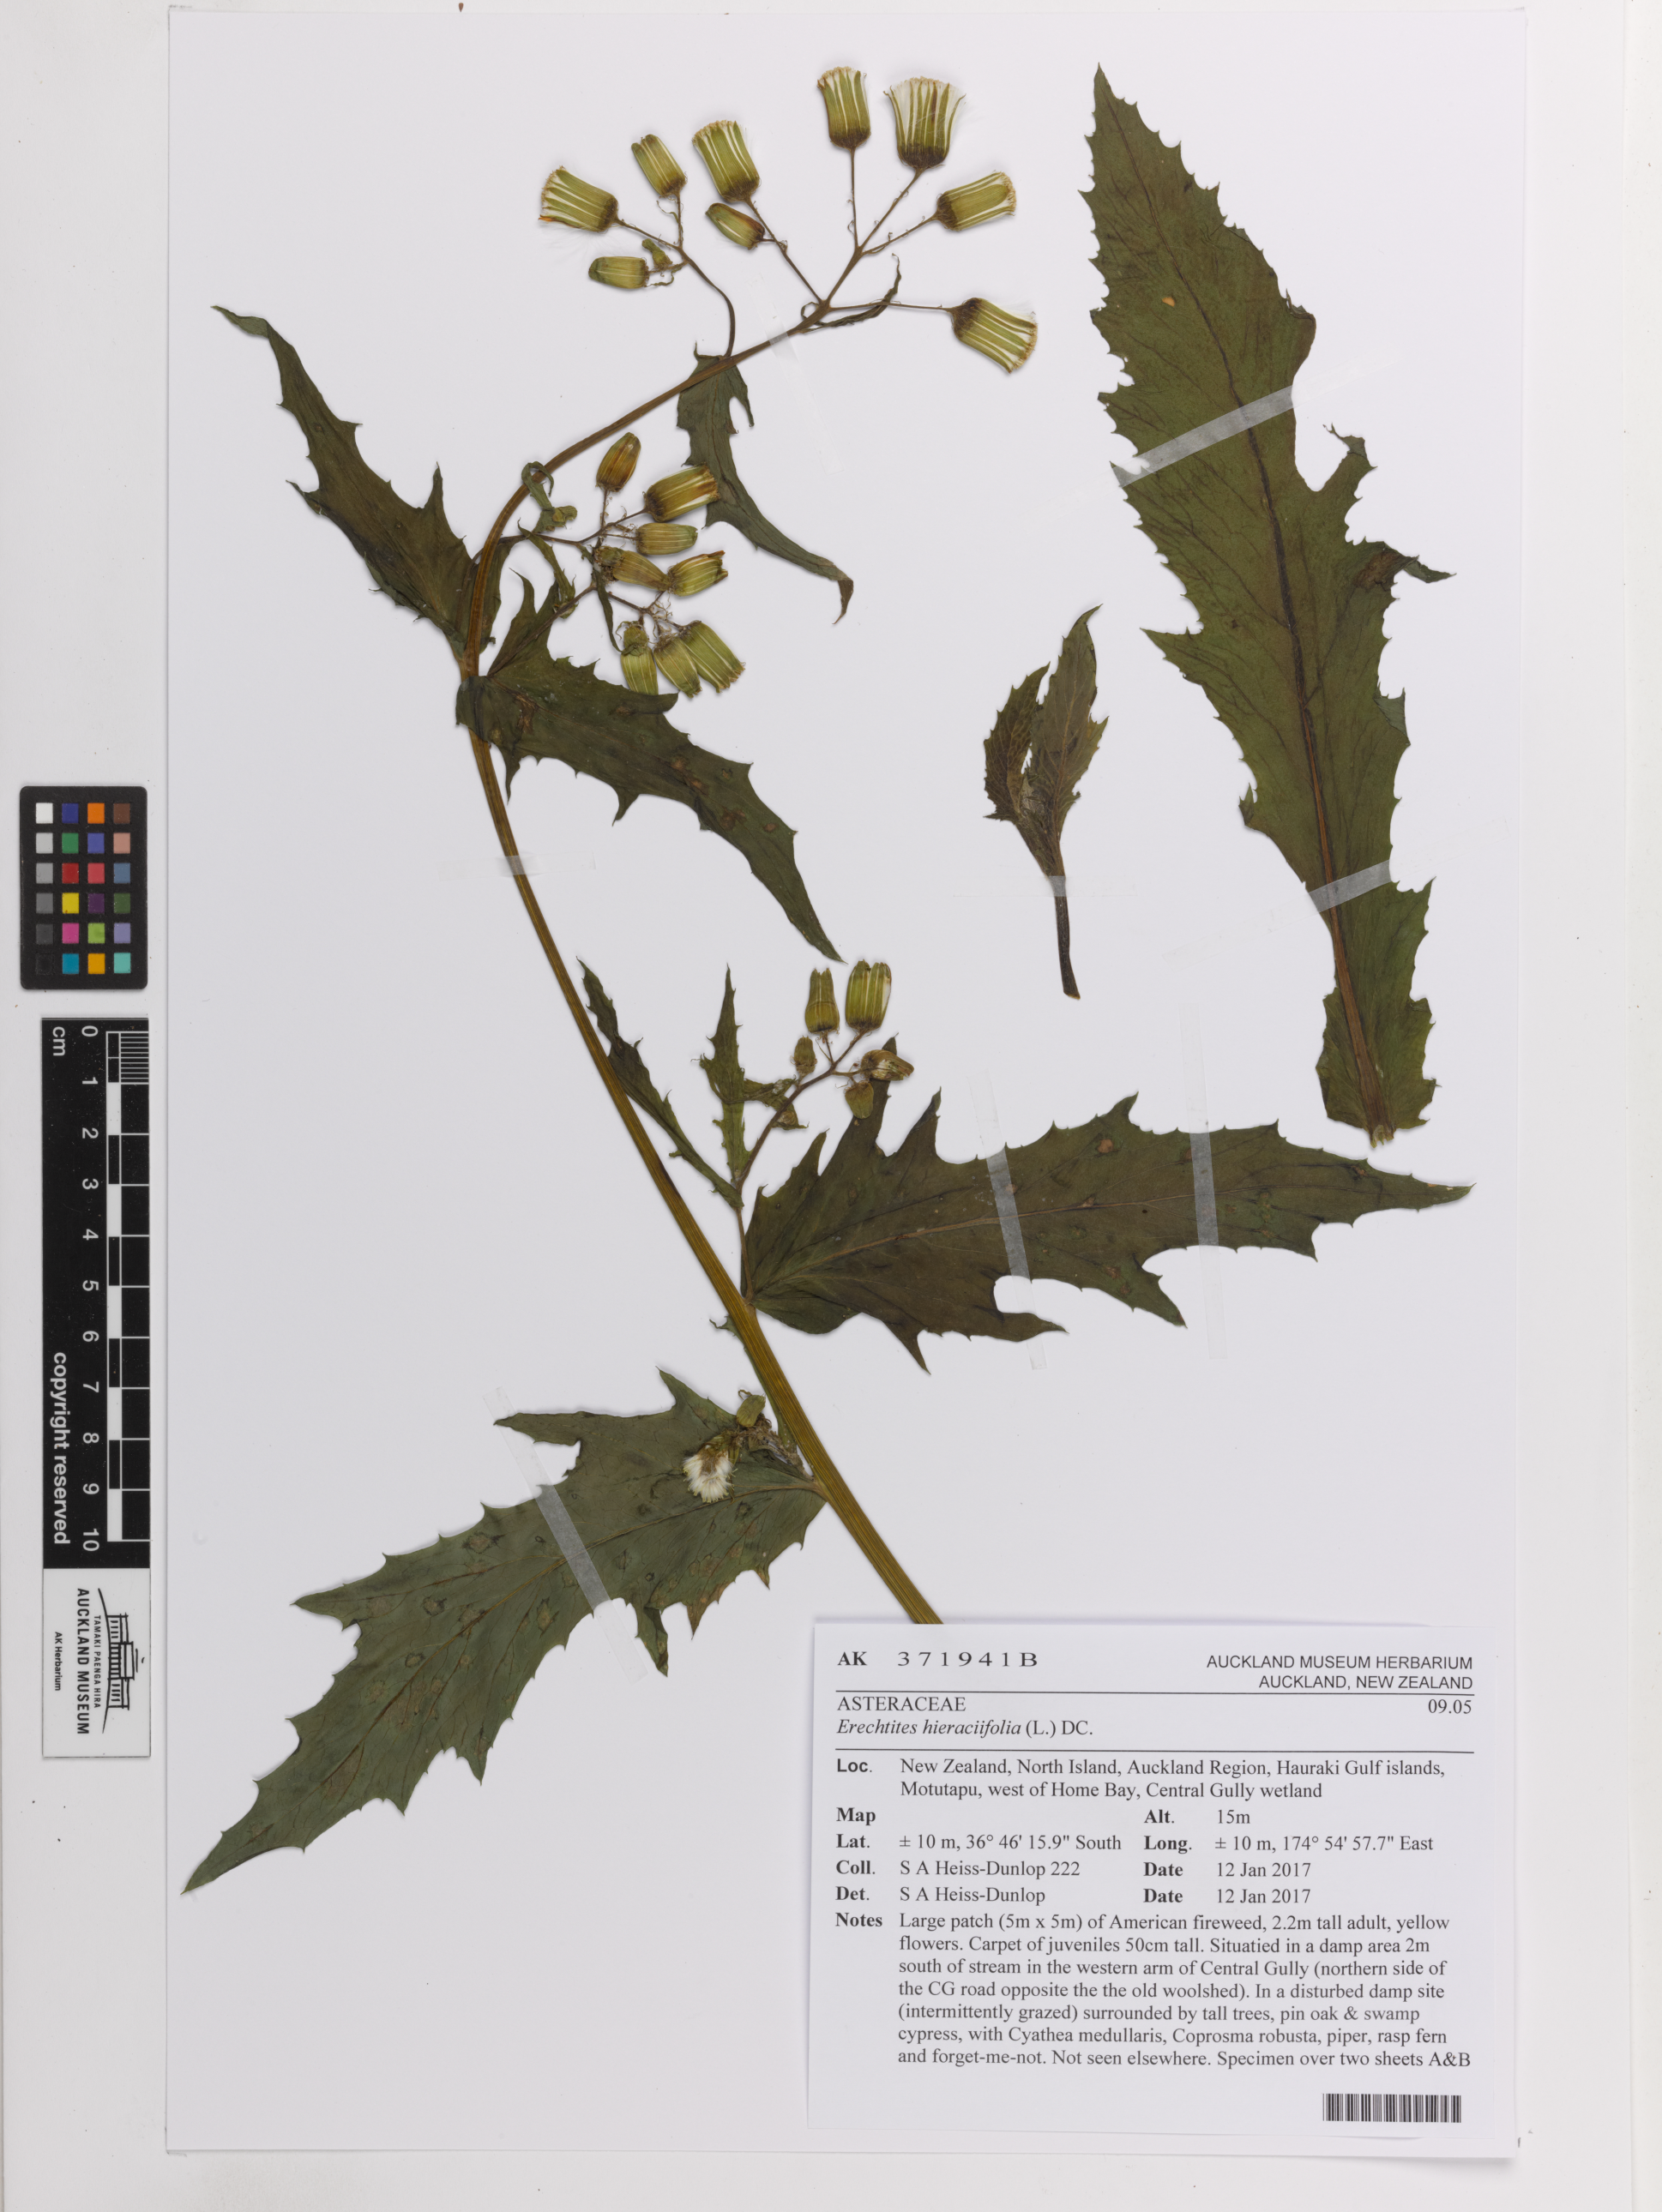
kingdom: Plantae
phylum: Tracheophyta
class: Magnoliopsida
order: Asterales
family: Asteraceae
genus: Erechtites
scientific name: Erechtites hieraciifolius
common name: American burnweed
